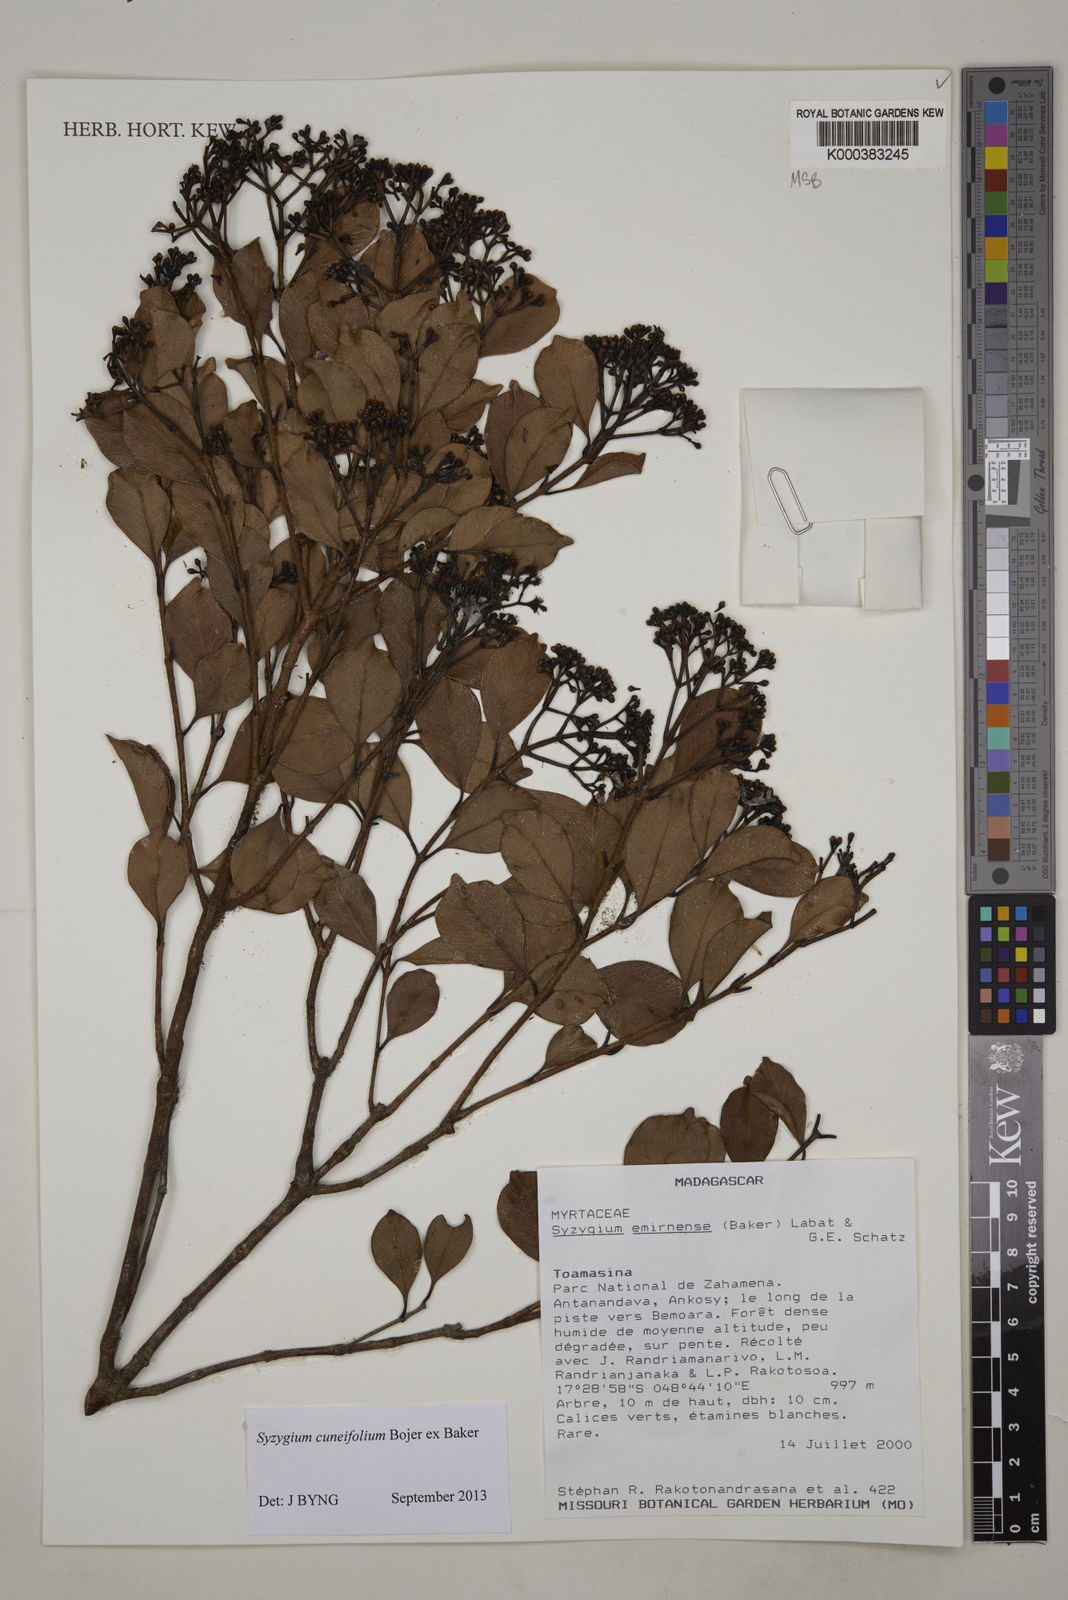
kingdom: Plantae
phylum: Tracheophyta
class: Magnoliopsida
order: Myrtales
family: Myrtaceae
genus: Syzygium
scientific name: Syzygium emirnense
